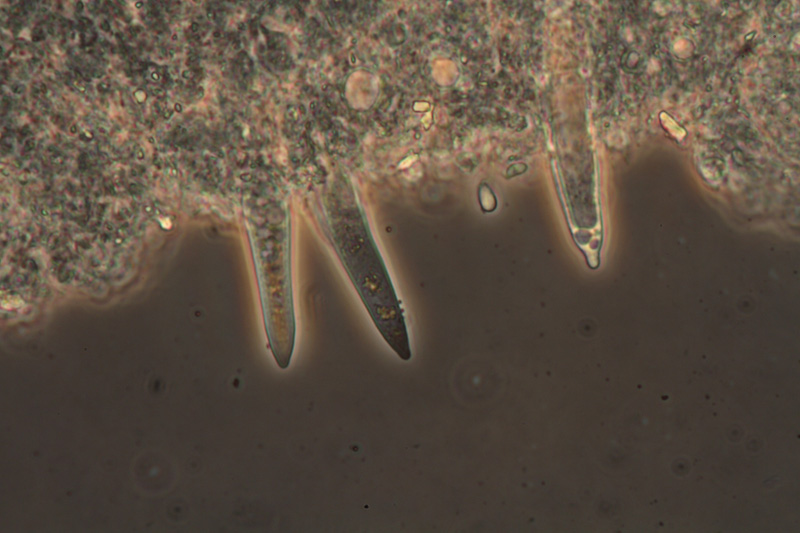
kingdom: Fungi
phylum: Basidiomycota
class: Agaricomycetes
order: Agaricales
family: Physalacriaceae
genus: Strobilurus
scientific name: Strobilurus tenacellus
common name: sommer-koglehat
